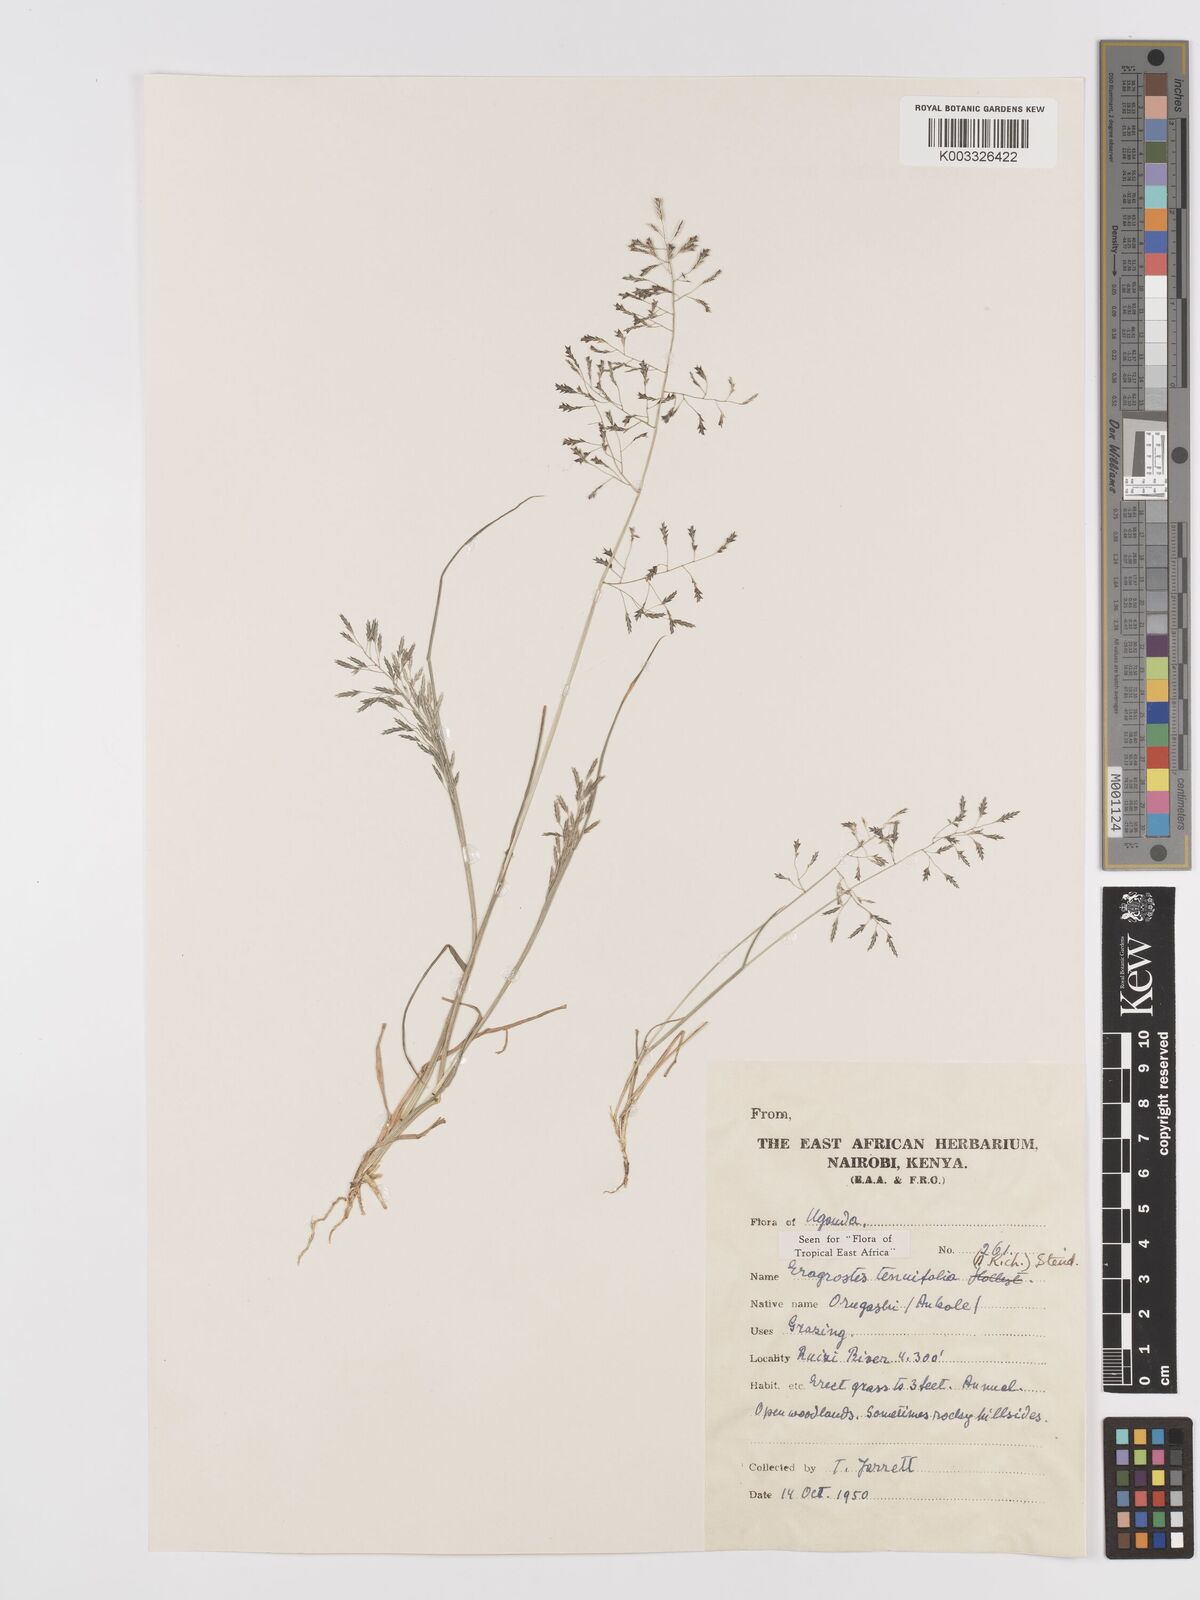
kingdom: Plantae
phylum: Tracheophyta
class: Liliopsida
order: Poales
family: Poaceae
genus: Eragrostis
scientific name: Eragrostis tenuifolia
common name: Elastic grass
